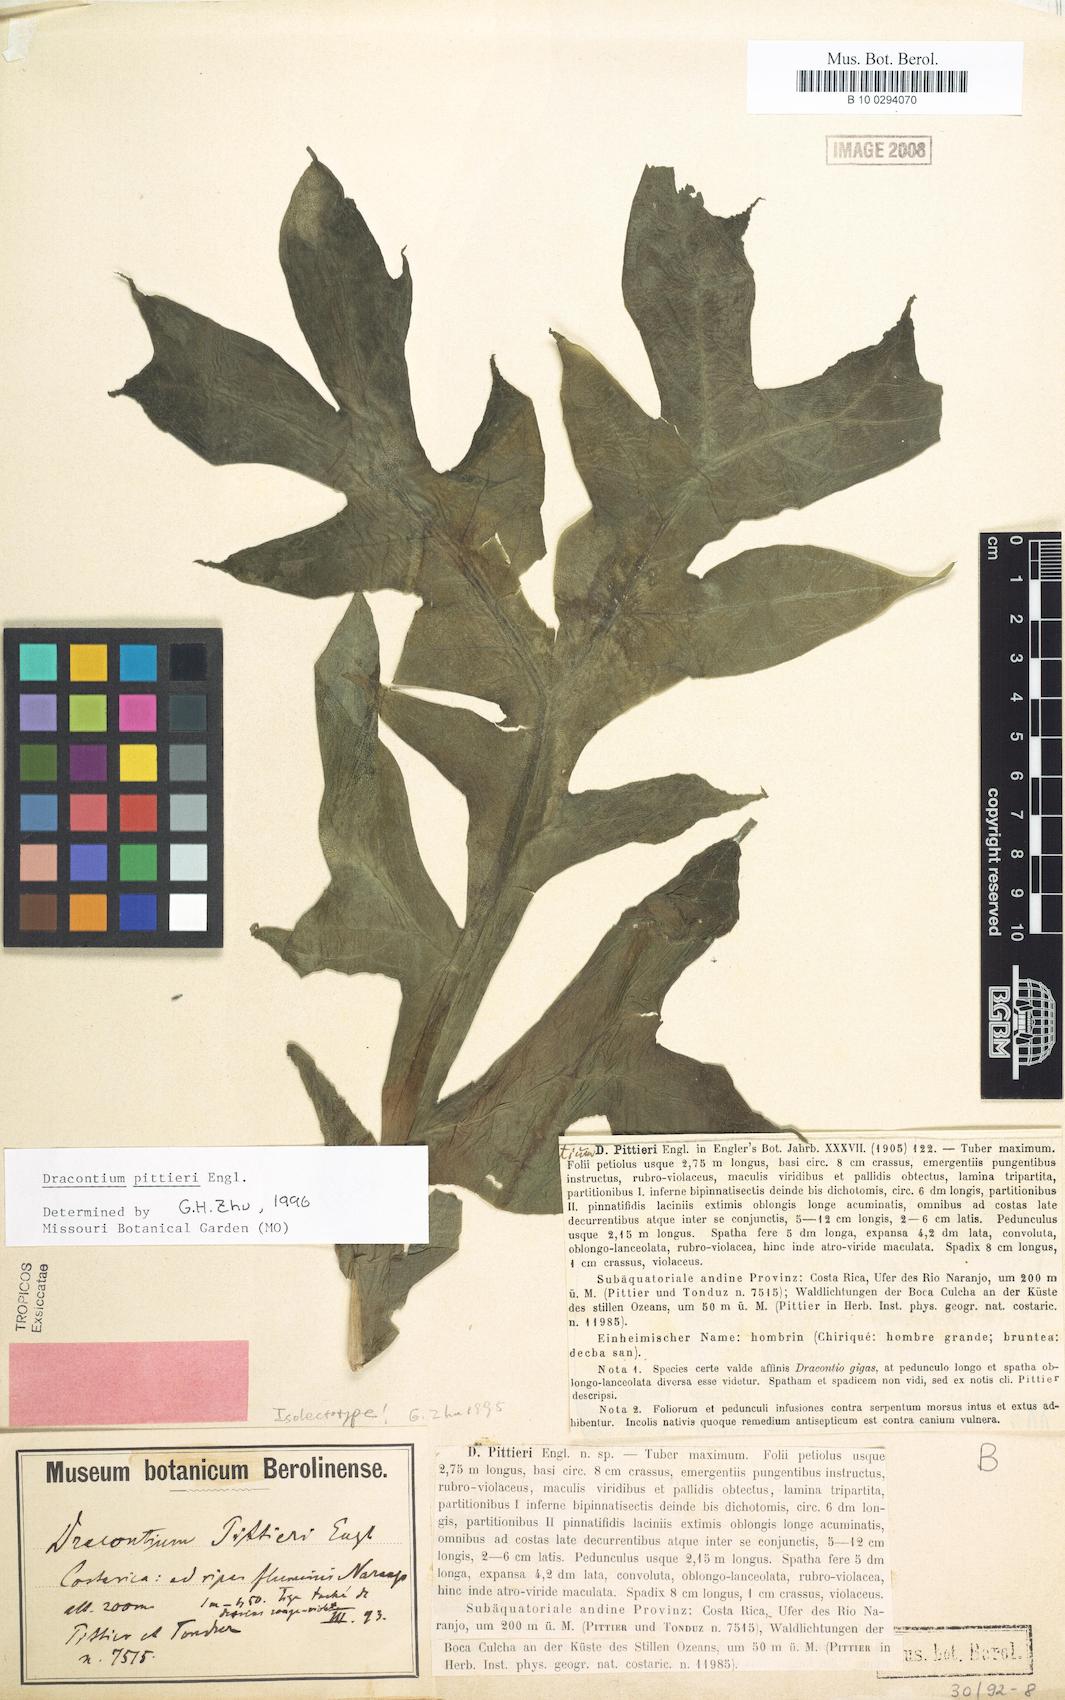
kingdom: Plantae
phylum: Tracheophyta
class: Liliopsida
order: Alismatales
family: Araceae
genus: Dracontium
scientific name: Dracontium pittieri
